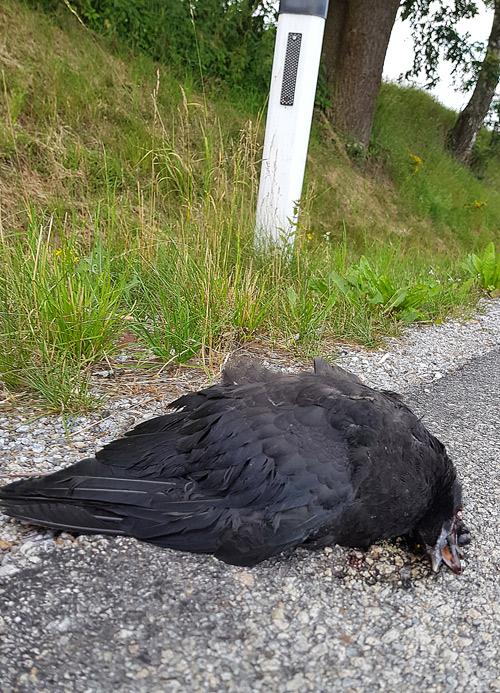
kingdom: Animalia
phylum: Chordata
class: Aves
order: Passeriformes
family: Corvidae
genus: Corvus
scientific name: Corvus
